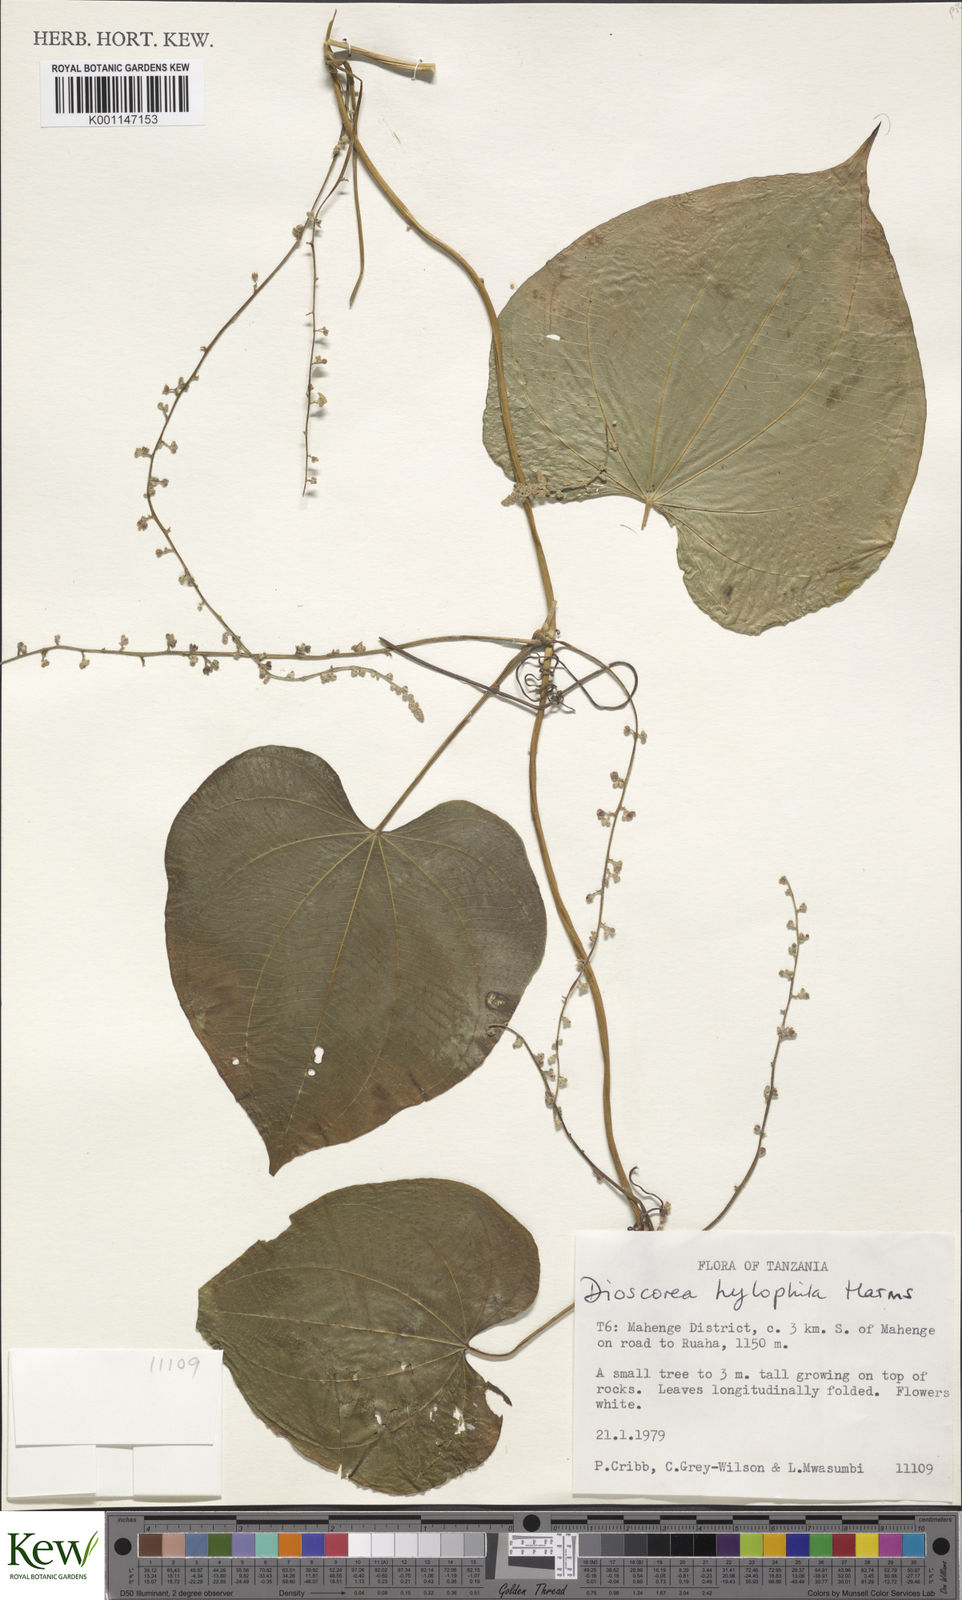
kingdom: Plantae
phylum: Tracheophyta
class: Liliopsida
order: Dioscoreales
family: Dioscoreaceae
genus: Dioscorea
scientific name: Dioscorea
